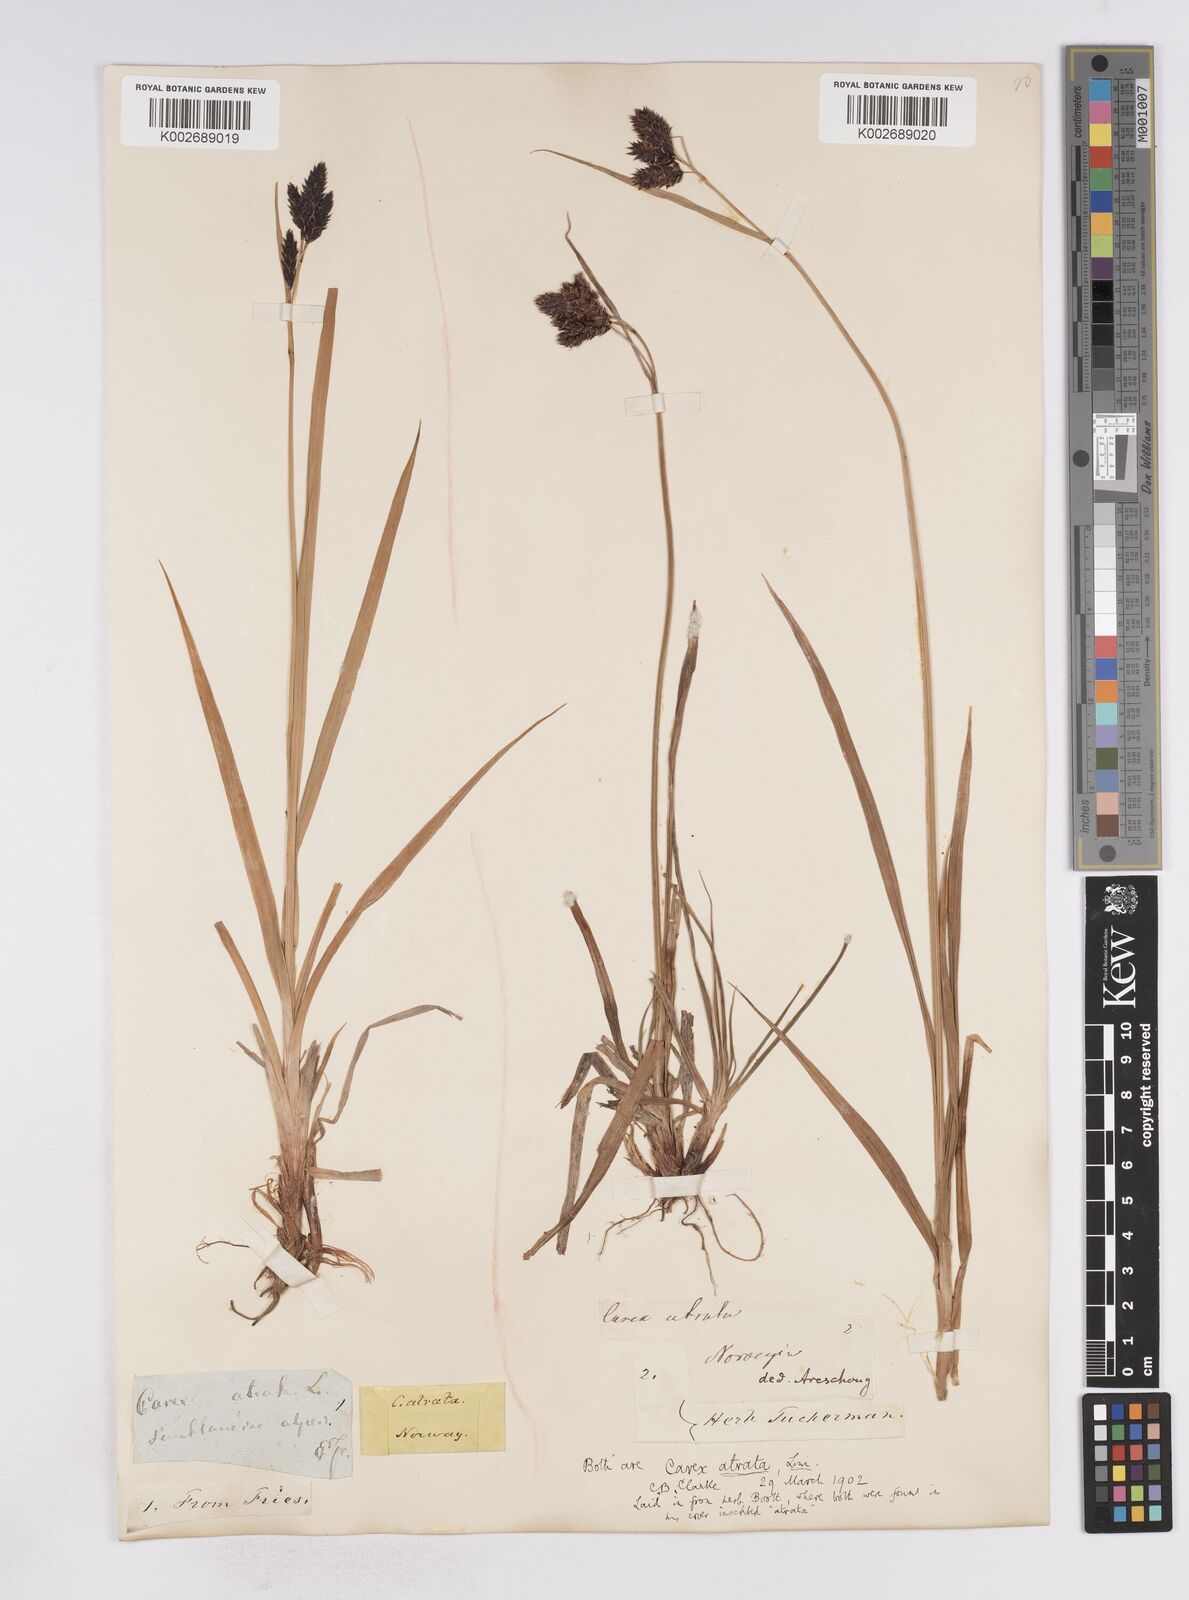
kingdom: Plantae
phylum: Tracheophyta
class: Liliopsida
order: Poales
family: Cyperaceae
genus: Carex
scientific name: Carex atrata
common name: Black alpine sedge
